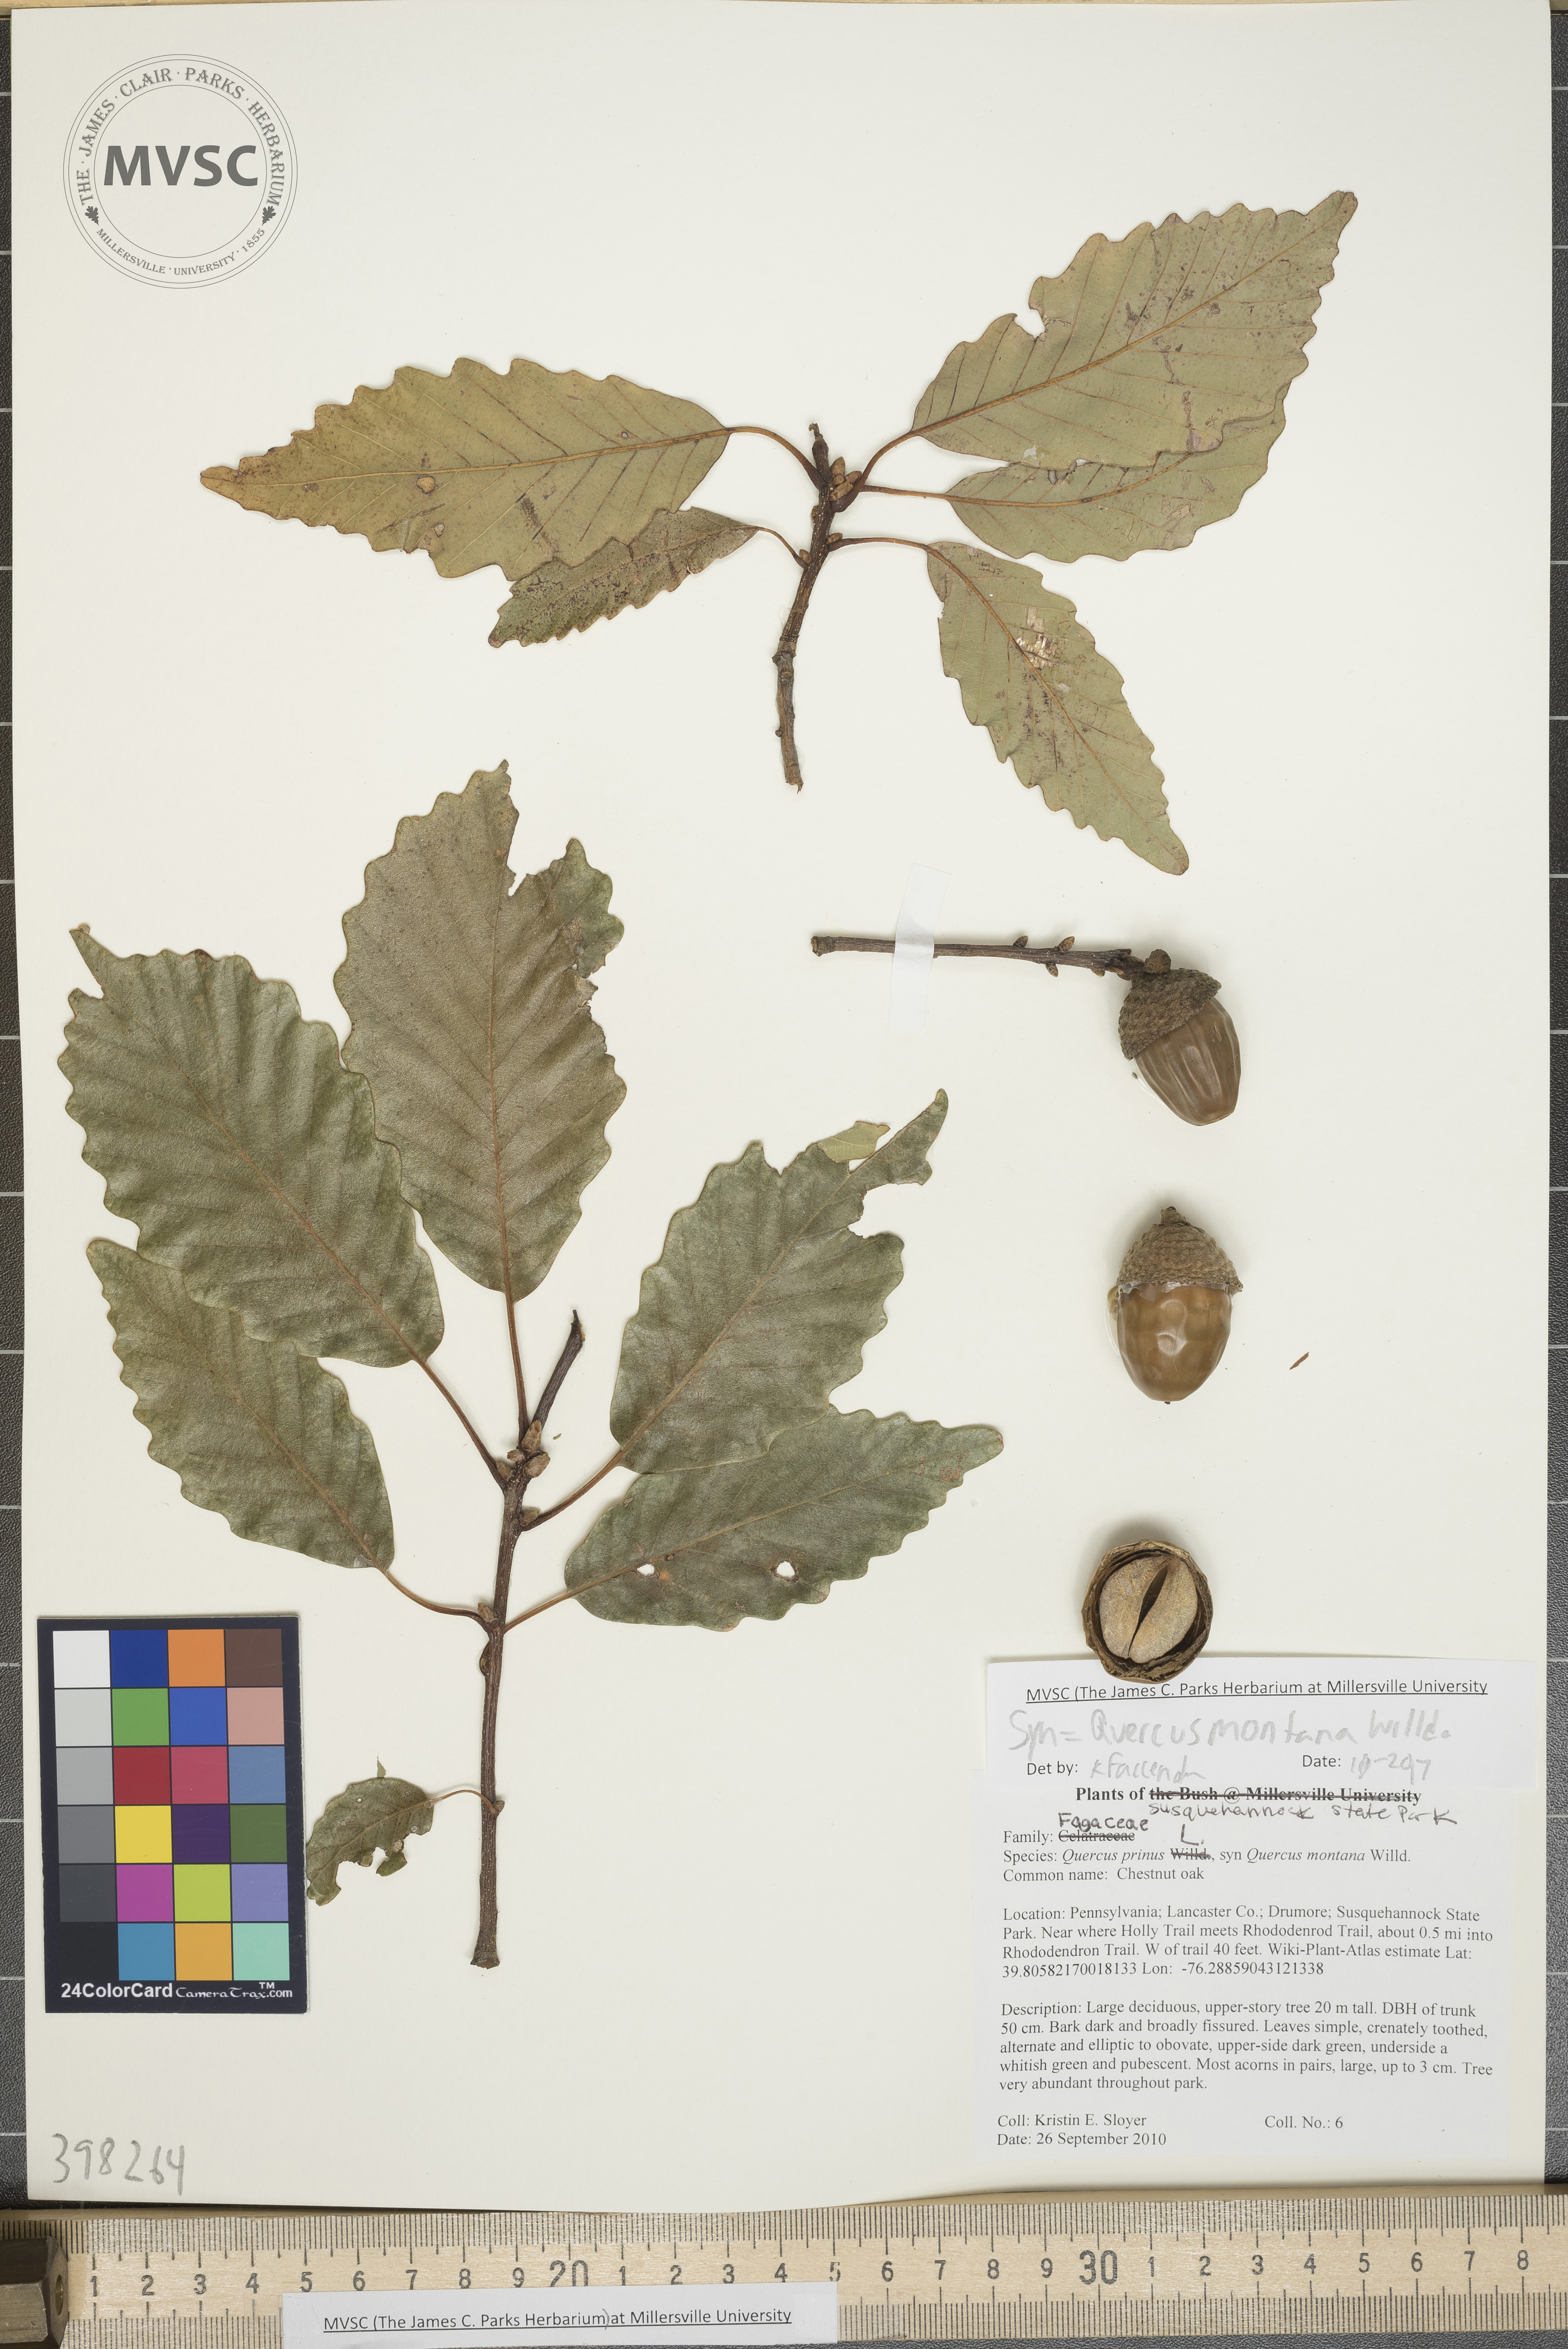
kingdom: Plantae
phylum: Tracheophyta
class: Magnoliopsida
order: Fagales
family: Fagaceae
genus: Quercus
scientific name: Quercus montana
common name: Chestnut oak
